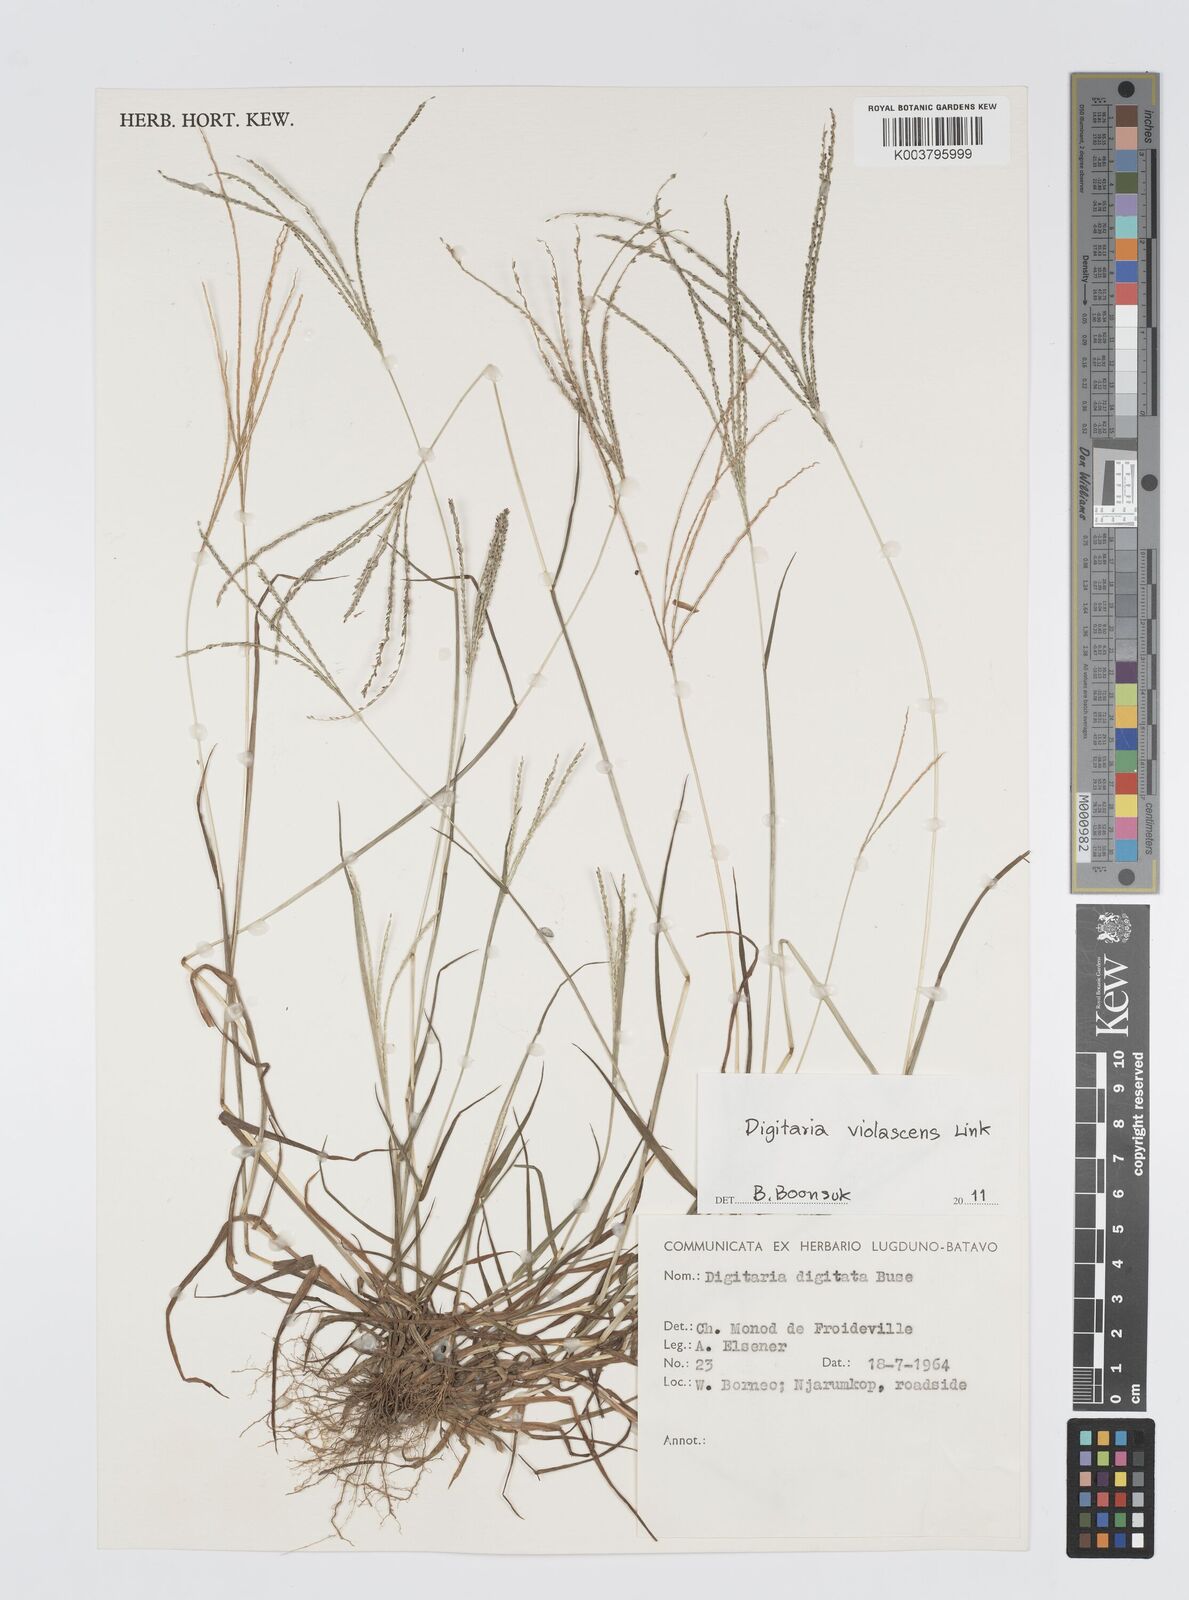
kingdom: Plantae
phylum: Tracheophyta
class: Liliopsida
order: Poales
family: Poaceae
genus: Digitaria
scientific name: Digitaria violascens
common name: Violet crabgrass
